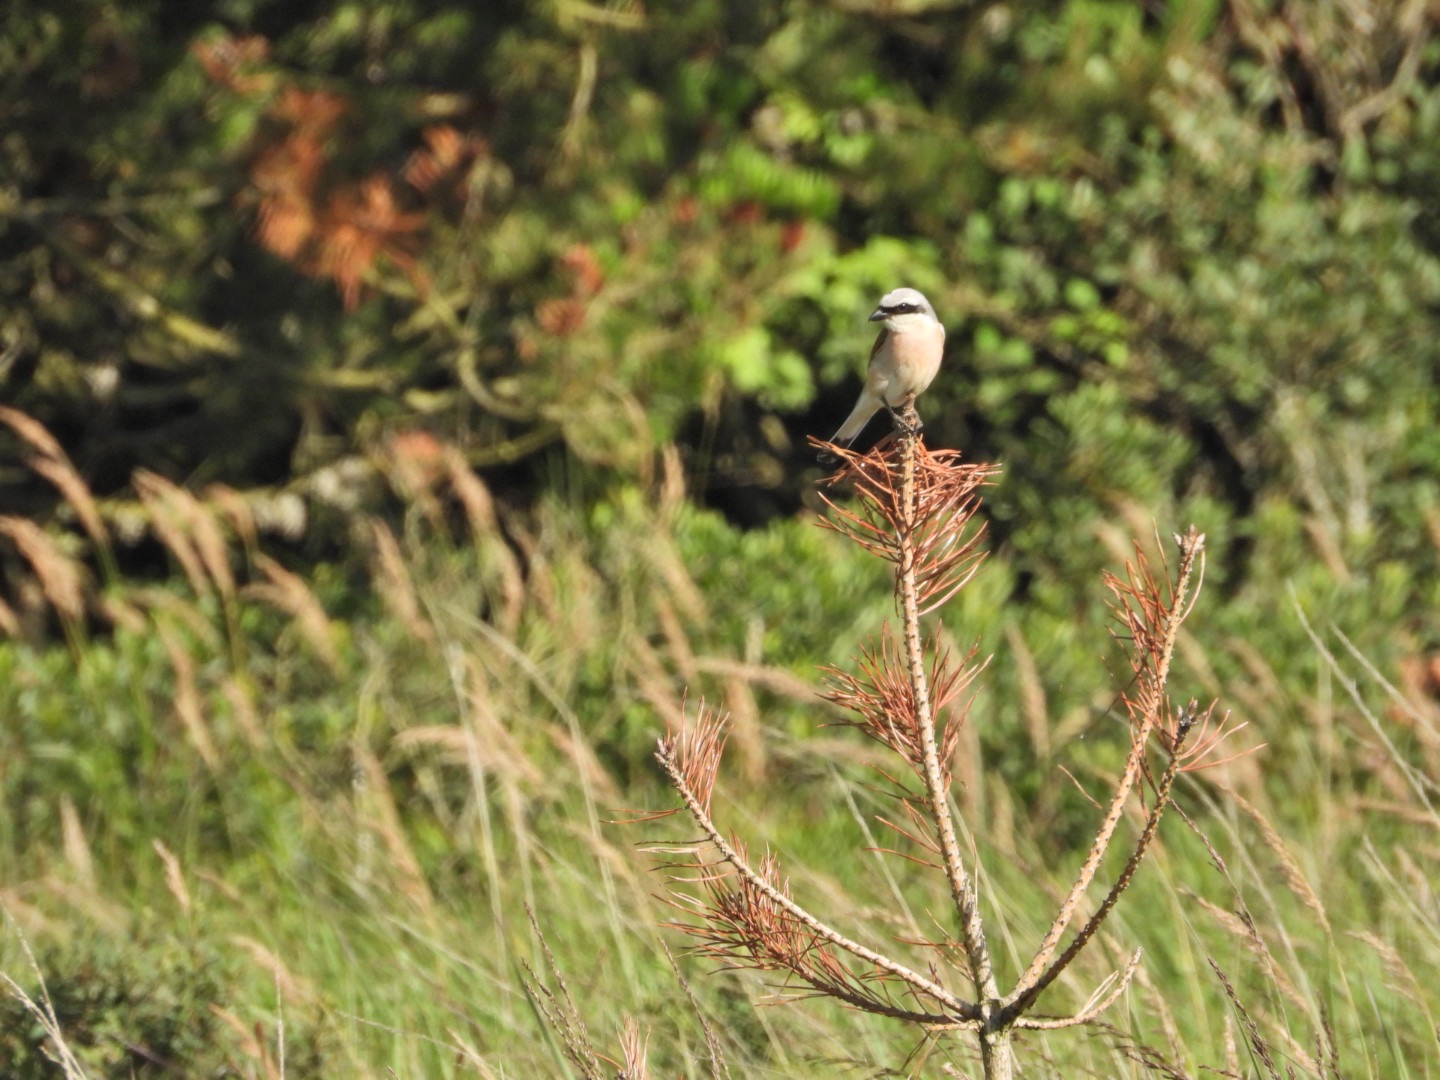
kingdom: Animalia
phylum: Chordata
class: Aves
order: Passeriformes
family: Laniidae
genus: Lanius
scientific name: Lanius collurio
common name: Rødrygget tornskade
